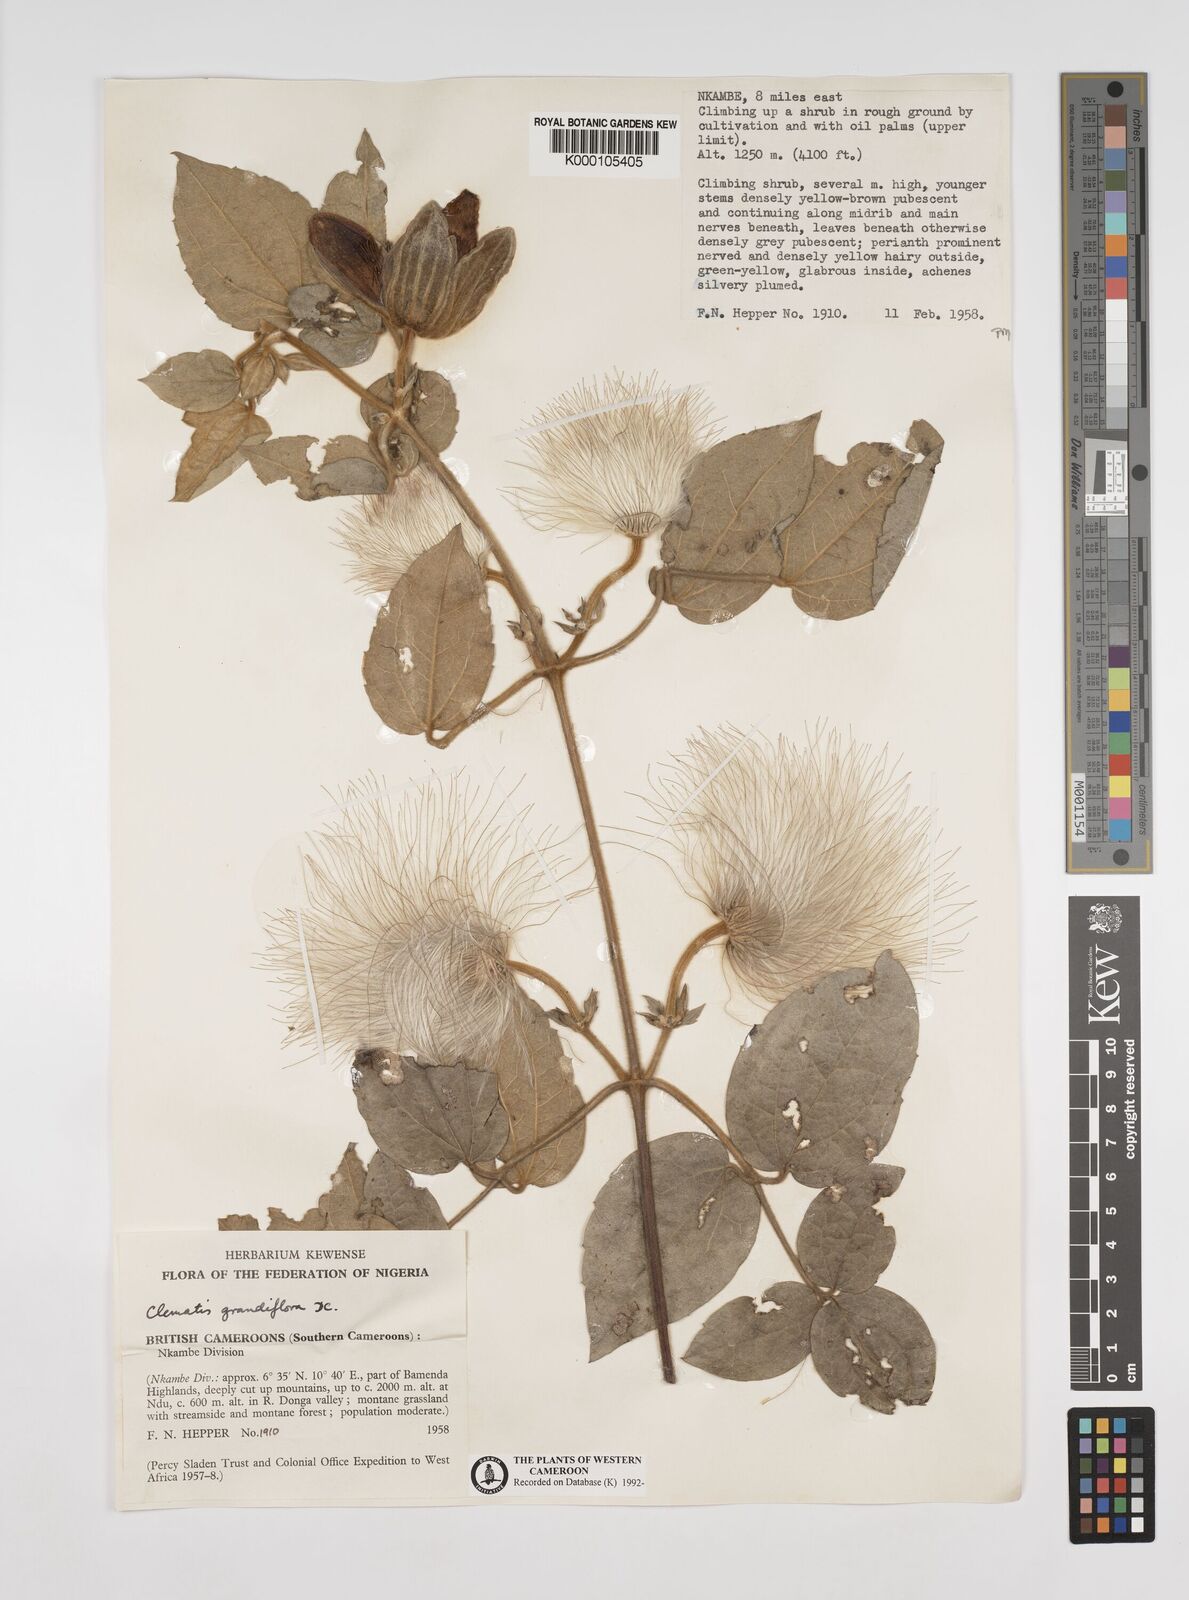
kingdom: Plantae
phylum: Tracheophyta
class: Magnoliopsida
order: Ranunculales
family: Ranunculaceae
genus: Clematis
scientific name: Clematis grandiflora
